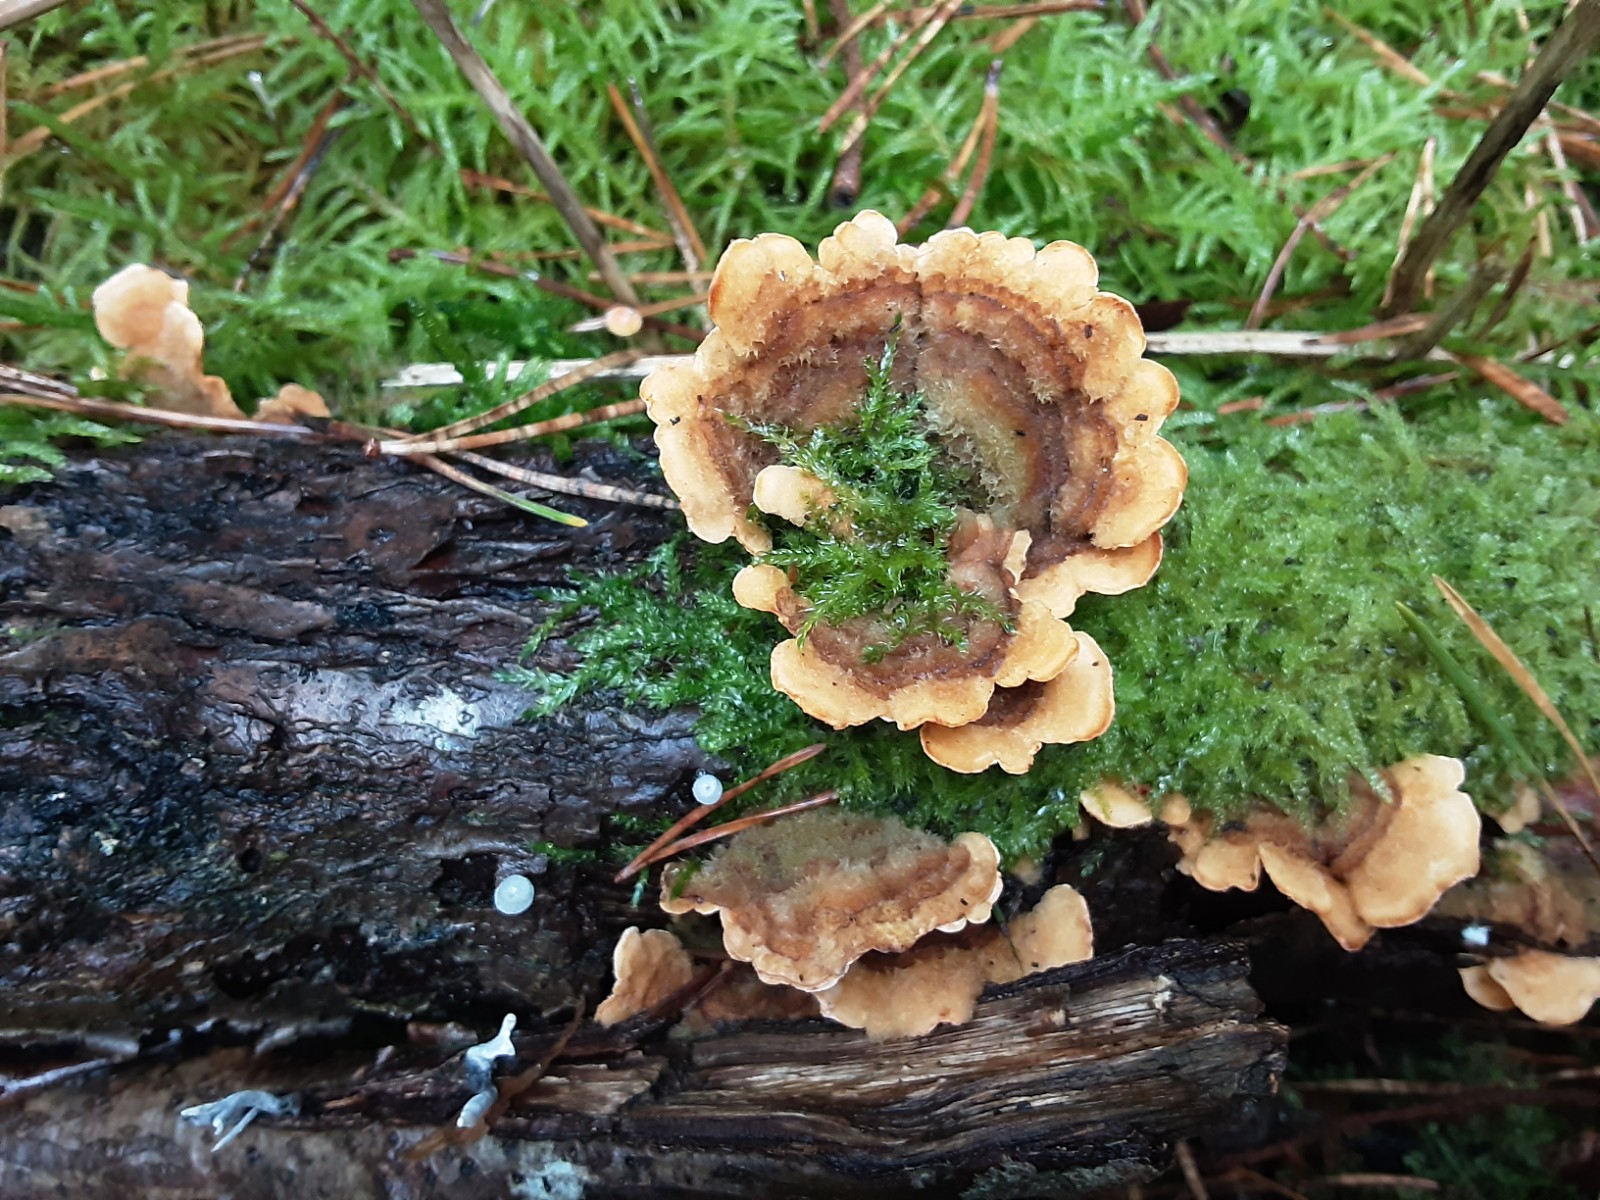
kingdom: Fungi
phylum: Basidiomycota
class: Agaricomycetes
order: Russulales
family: Stereaceae
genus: Stereum
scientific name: Stereum hirsutum
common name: håret lædersvamp
